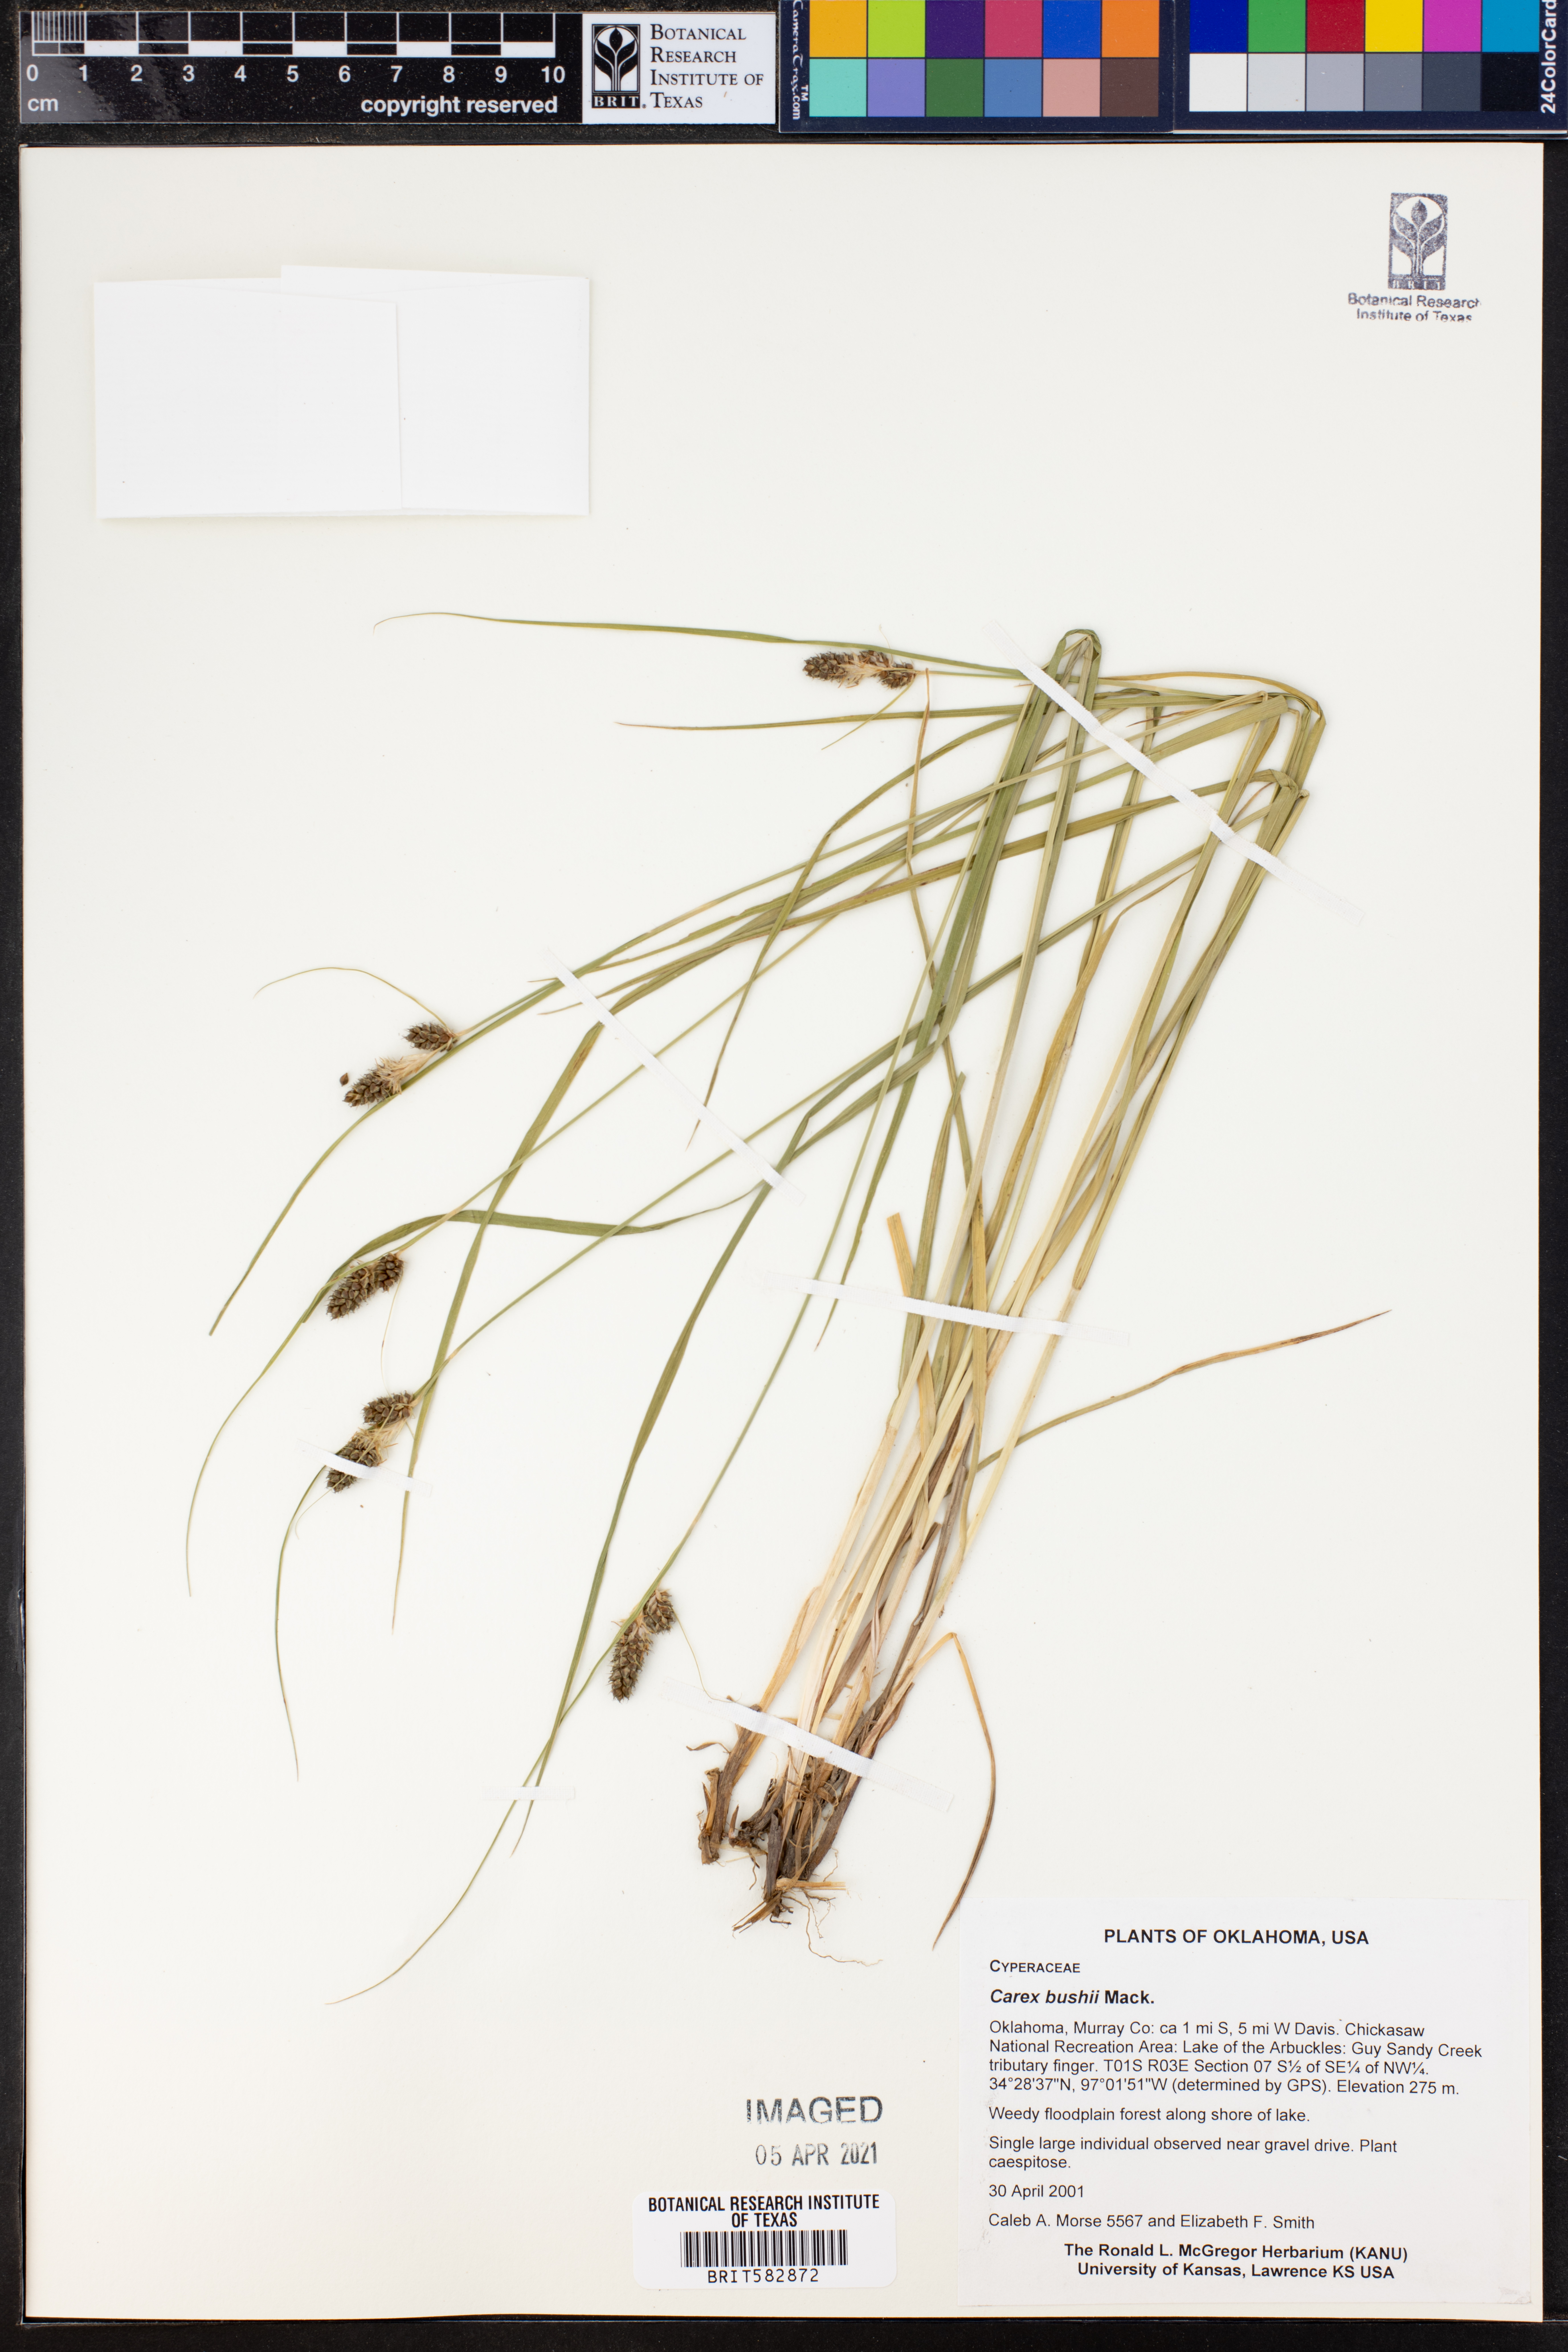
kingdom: Plantae
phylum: Tracheophyta
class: Liliopsida
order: Poales
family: Cyperaceae
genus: Carex
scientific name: Carex bushii
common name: Bush's sedge
